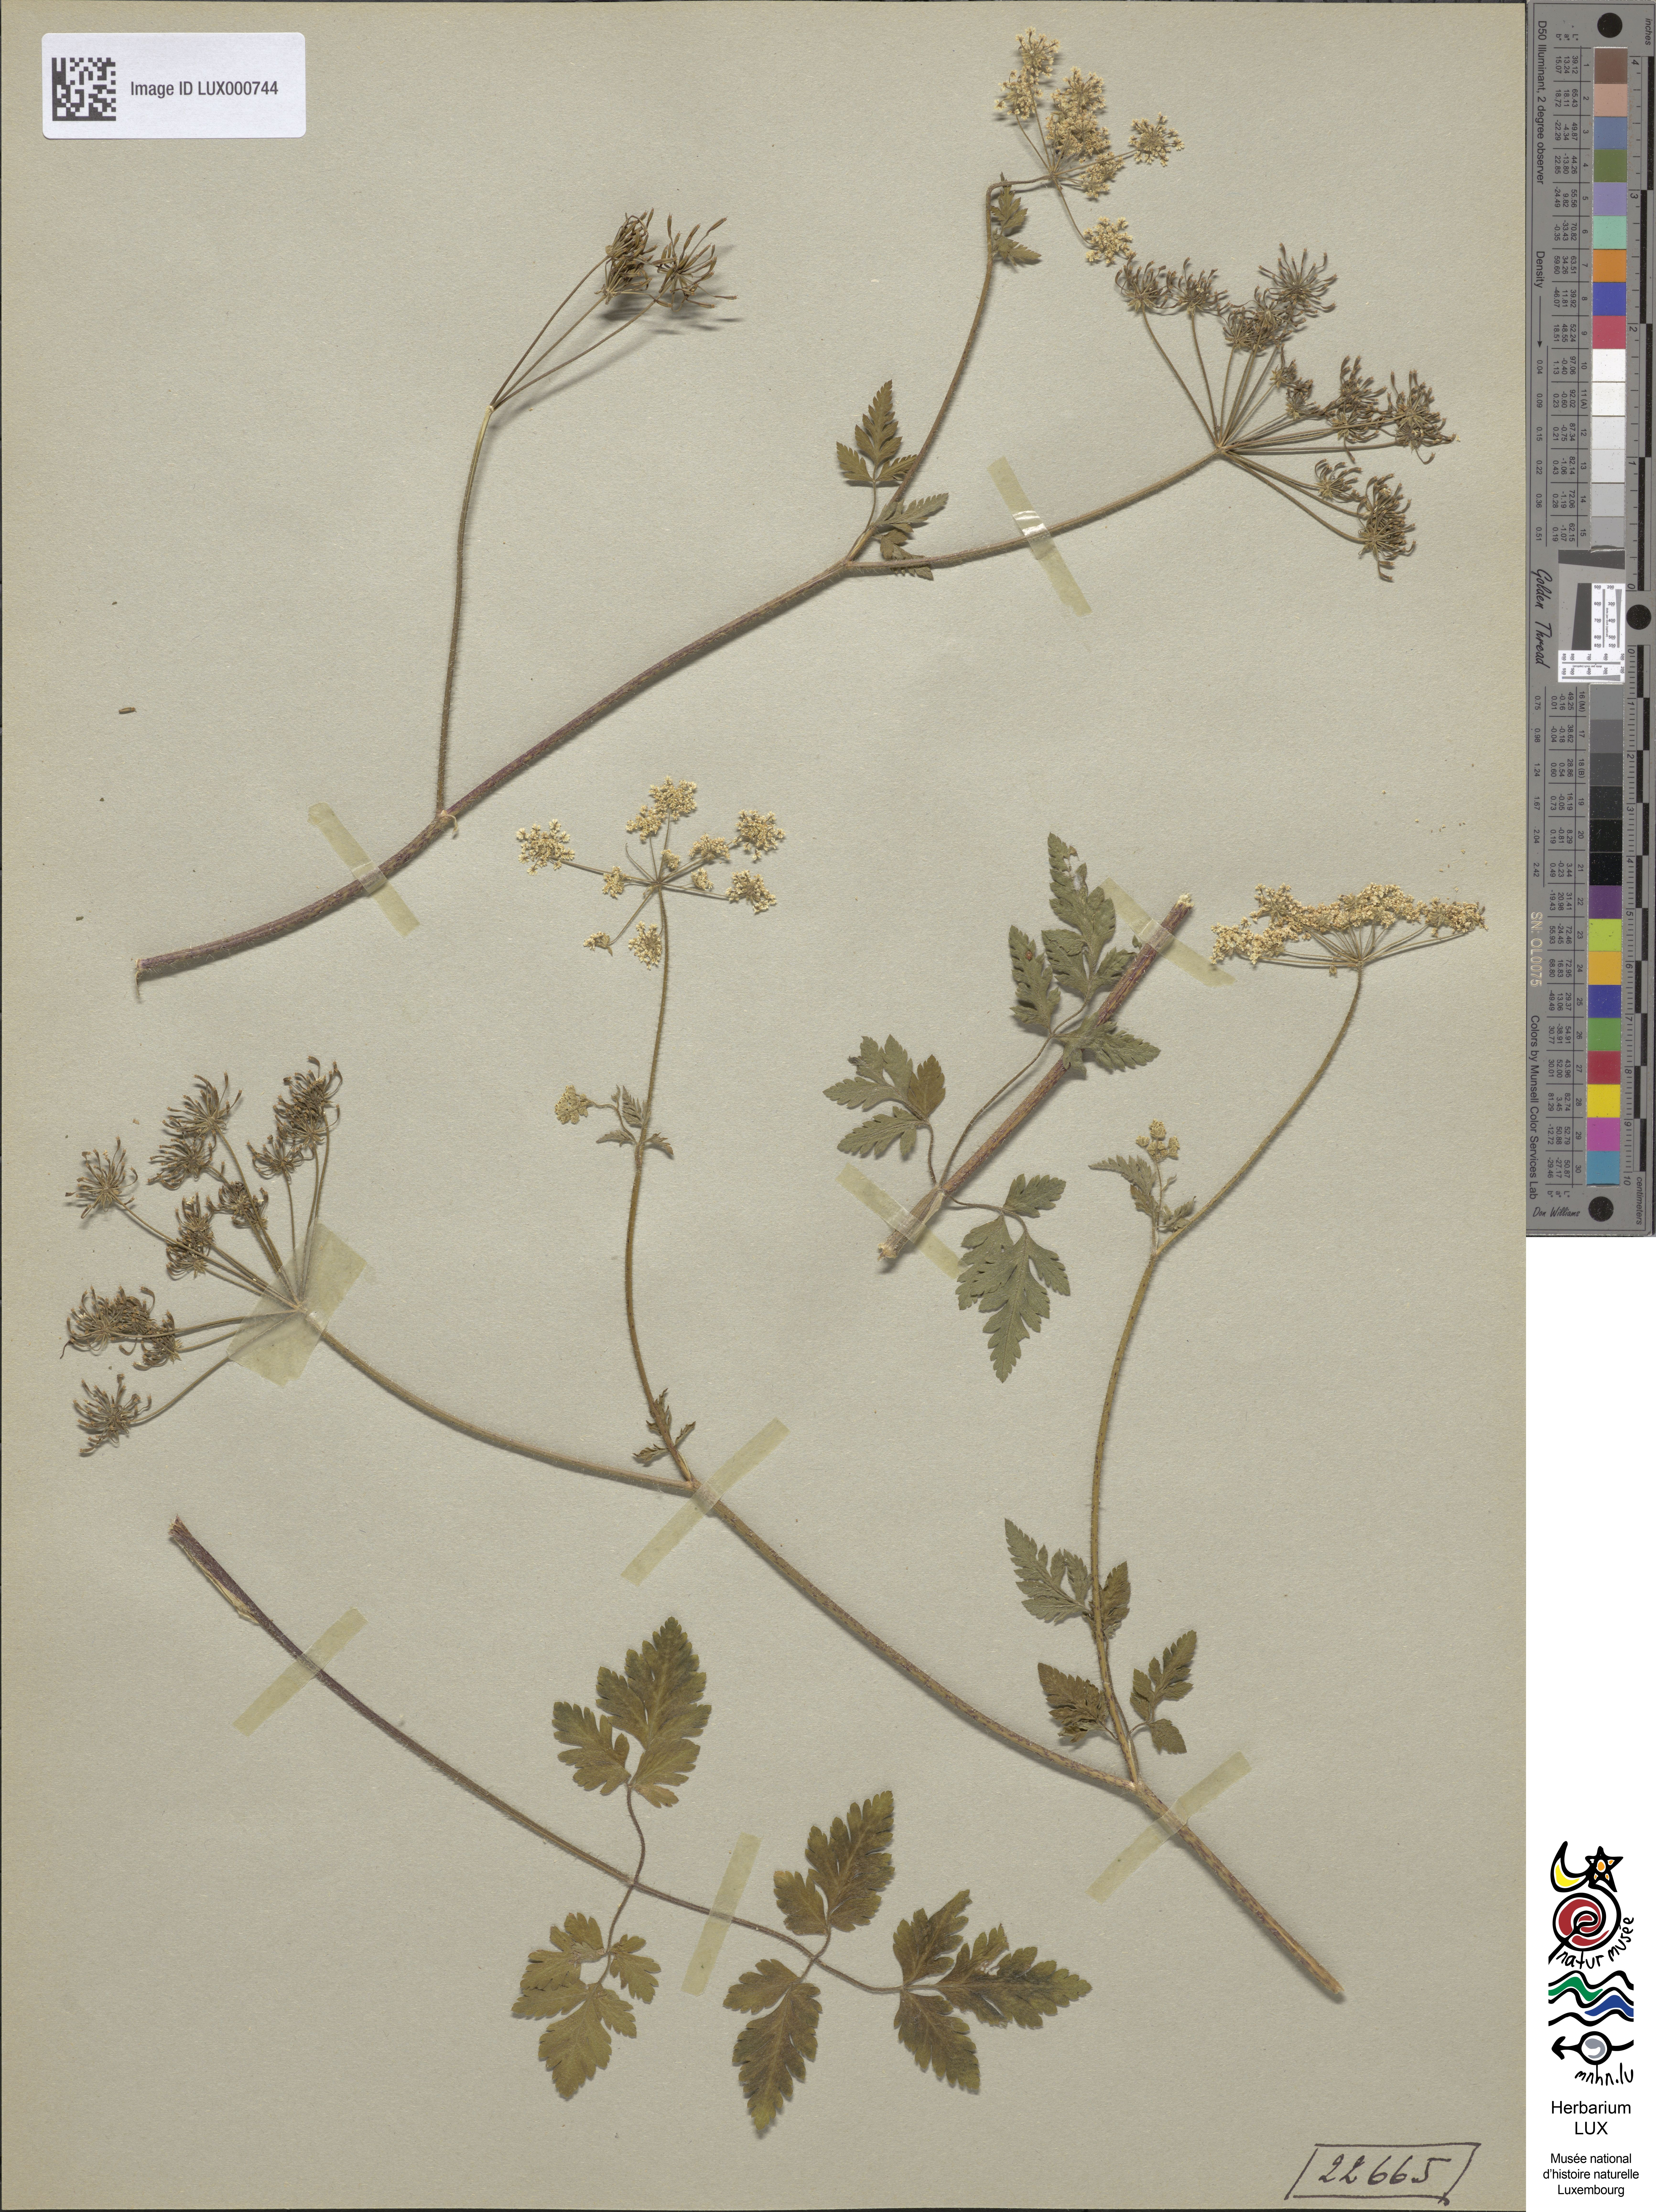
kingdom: Plantae
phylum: Tracheophyta
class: Magnoliopsida
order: Apiales
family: Apiaceae
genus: Chaerophyllum
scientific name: Chaerophyllum temulum
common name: Rough chervil
